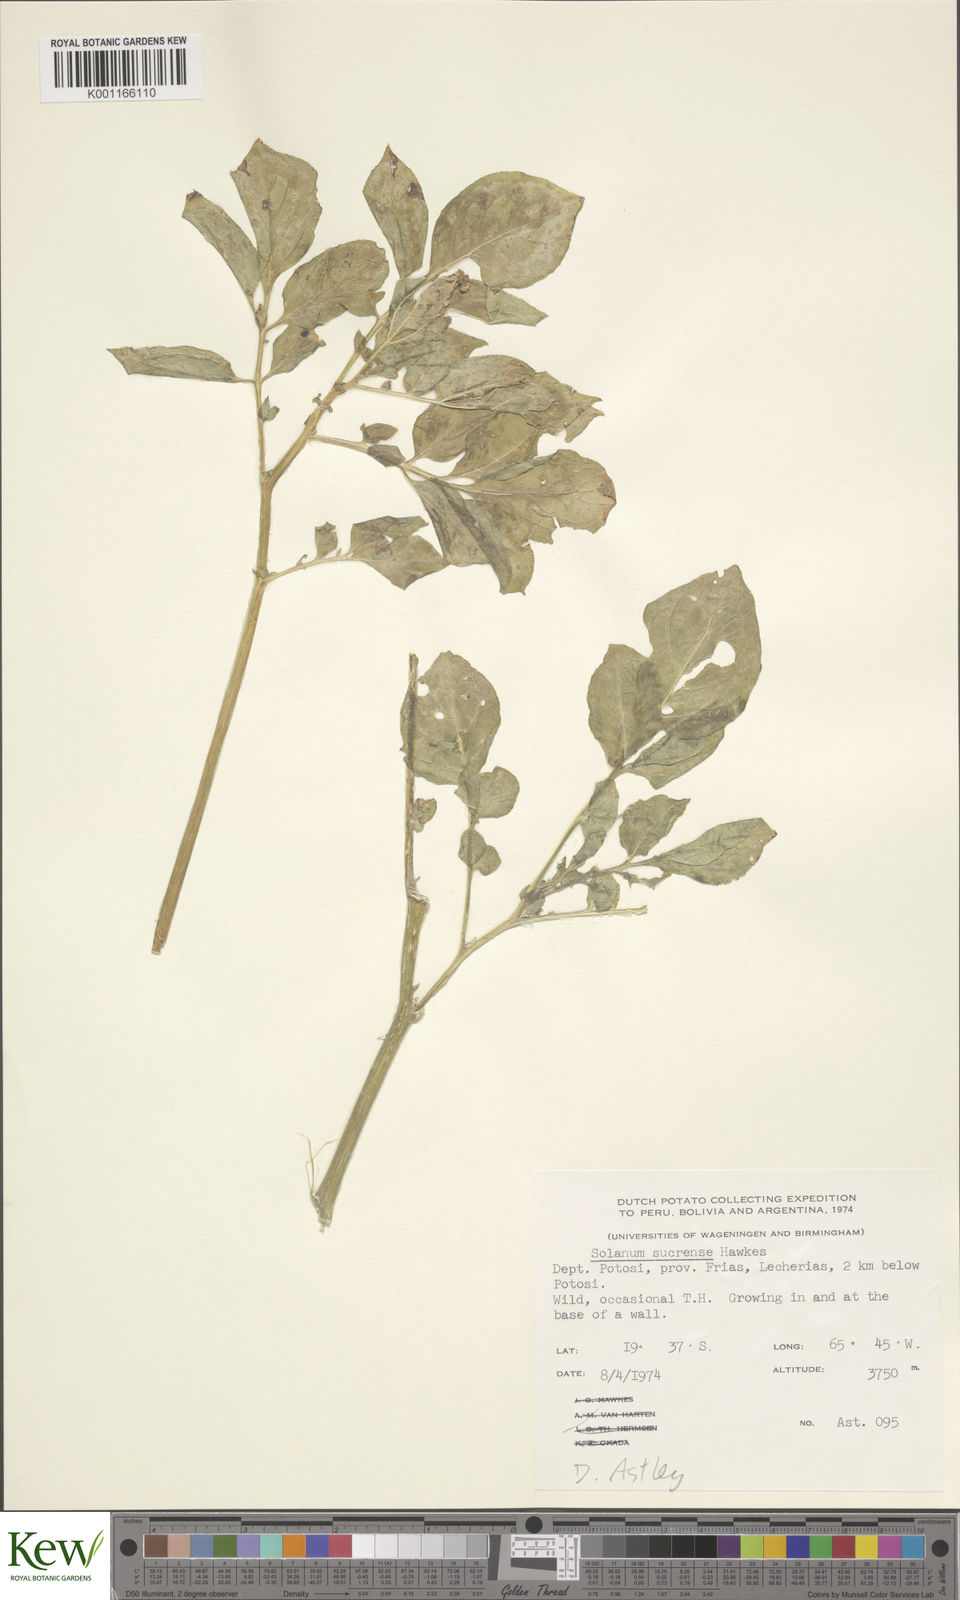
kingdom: Plantae
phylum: Tracheophyta
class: Magnoliopsida
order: Solanales
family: Solanaceae
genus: Solanum
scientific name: Solanum brevicaule
